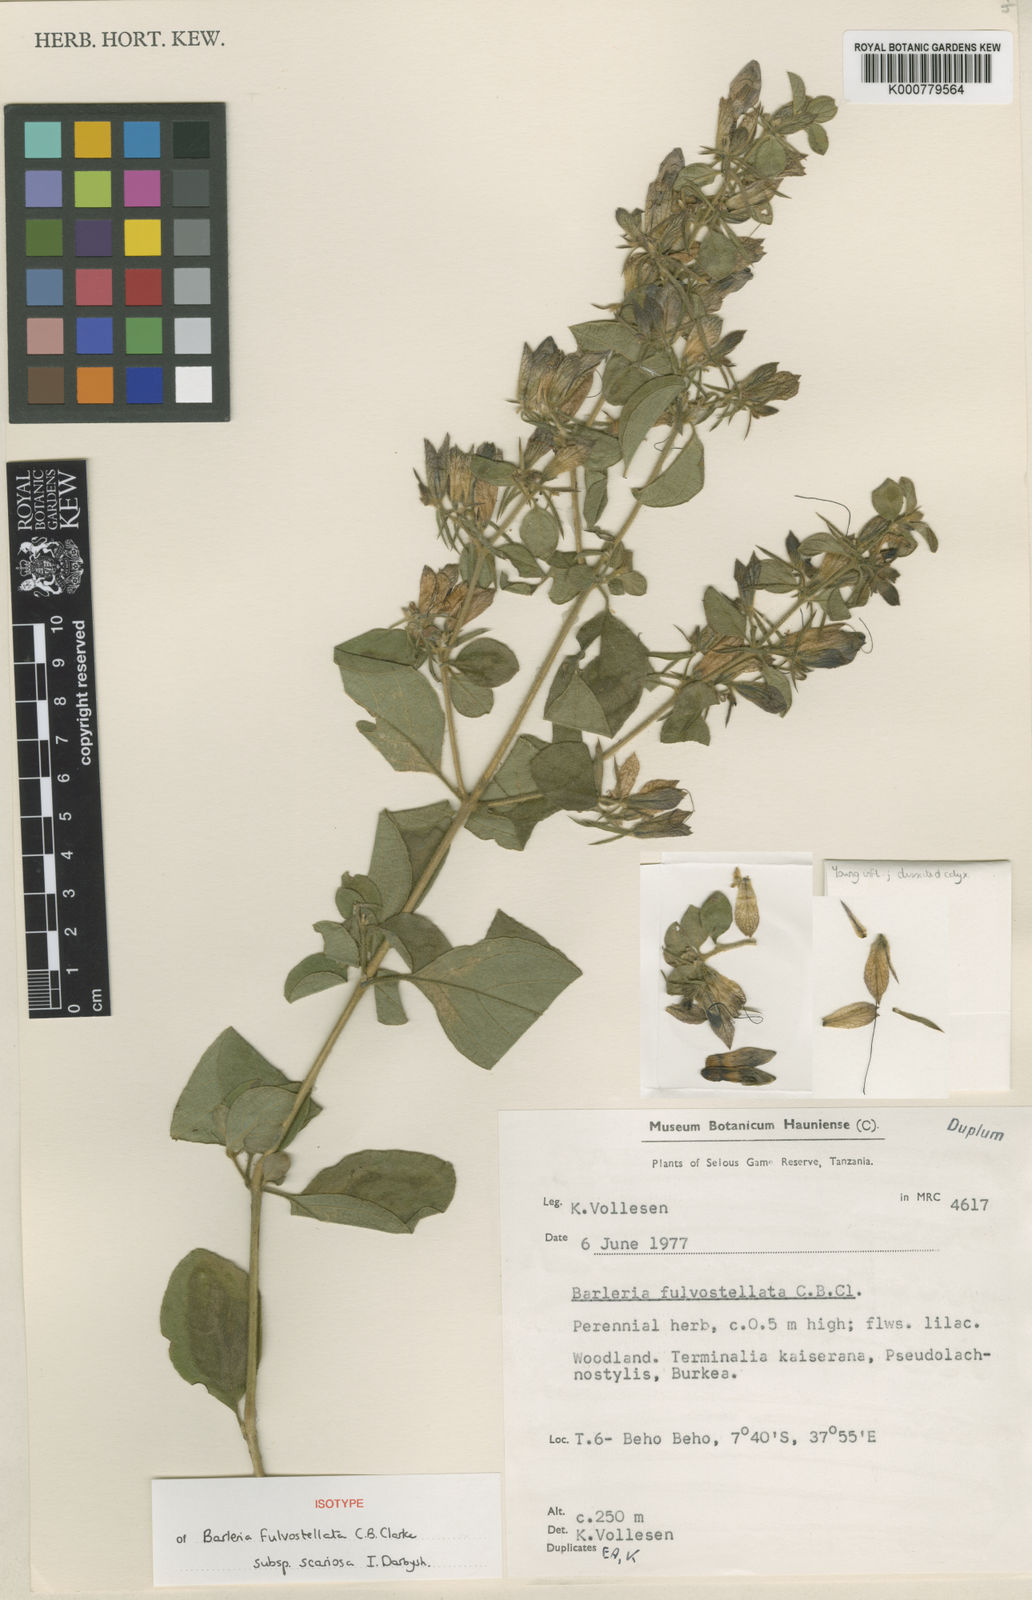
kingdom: Plantae
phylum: Tracheophyta
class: Magnoliopsida
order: Lamiales
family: Acanthaceae
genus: Barleria
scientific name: Barleria mutabilis
